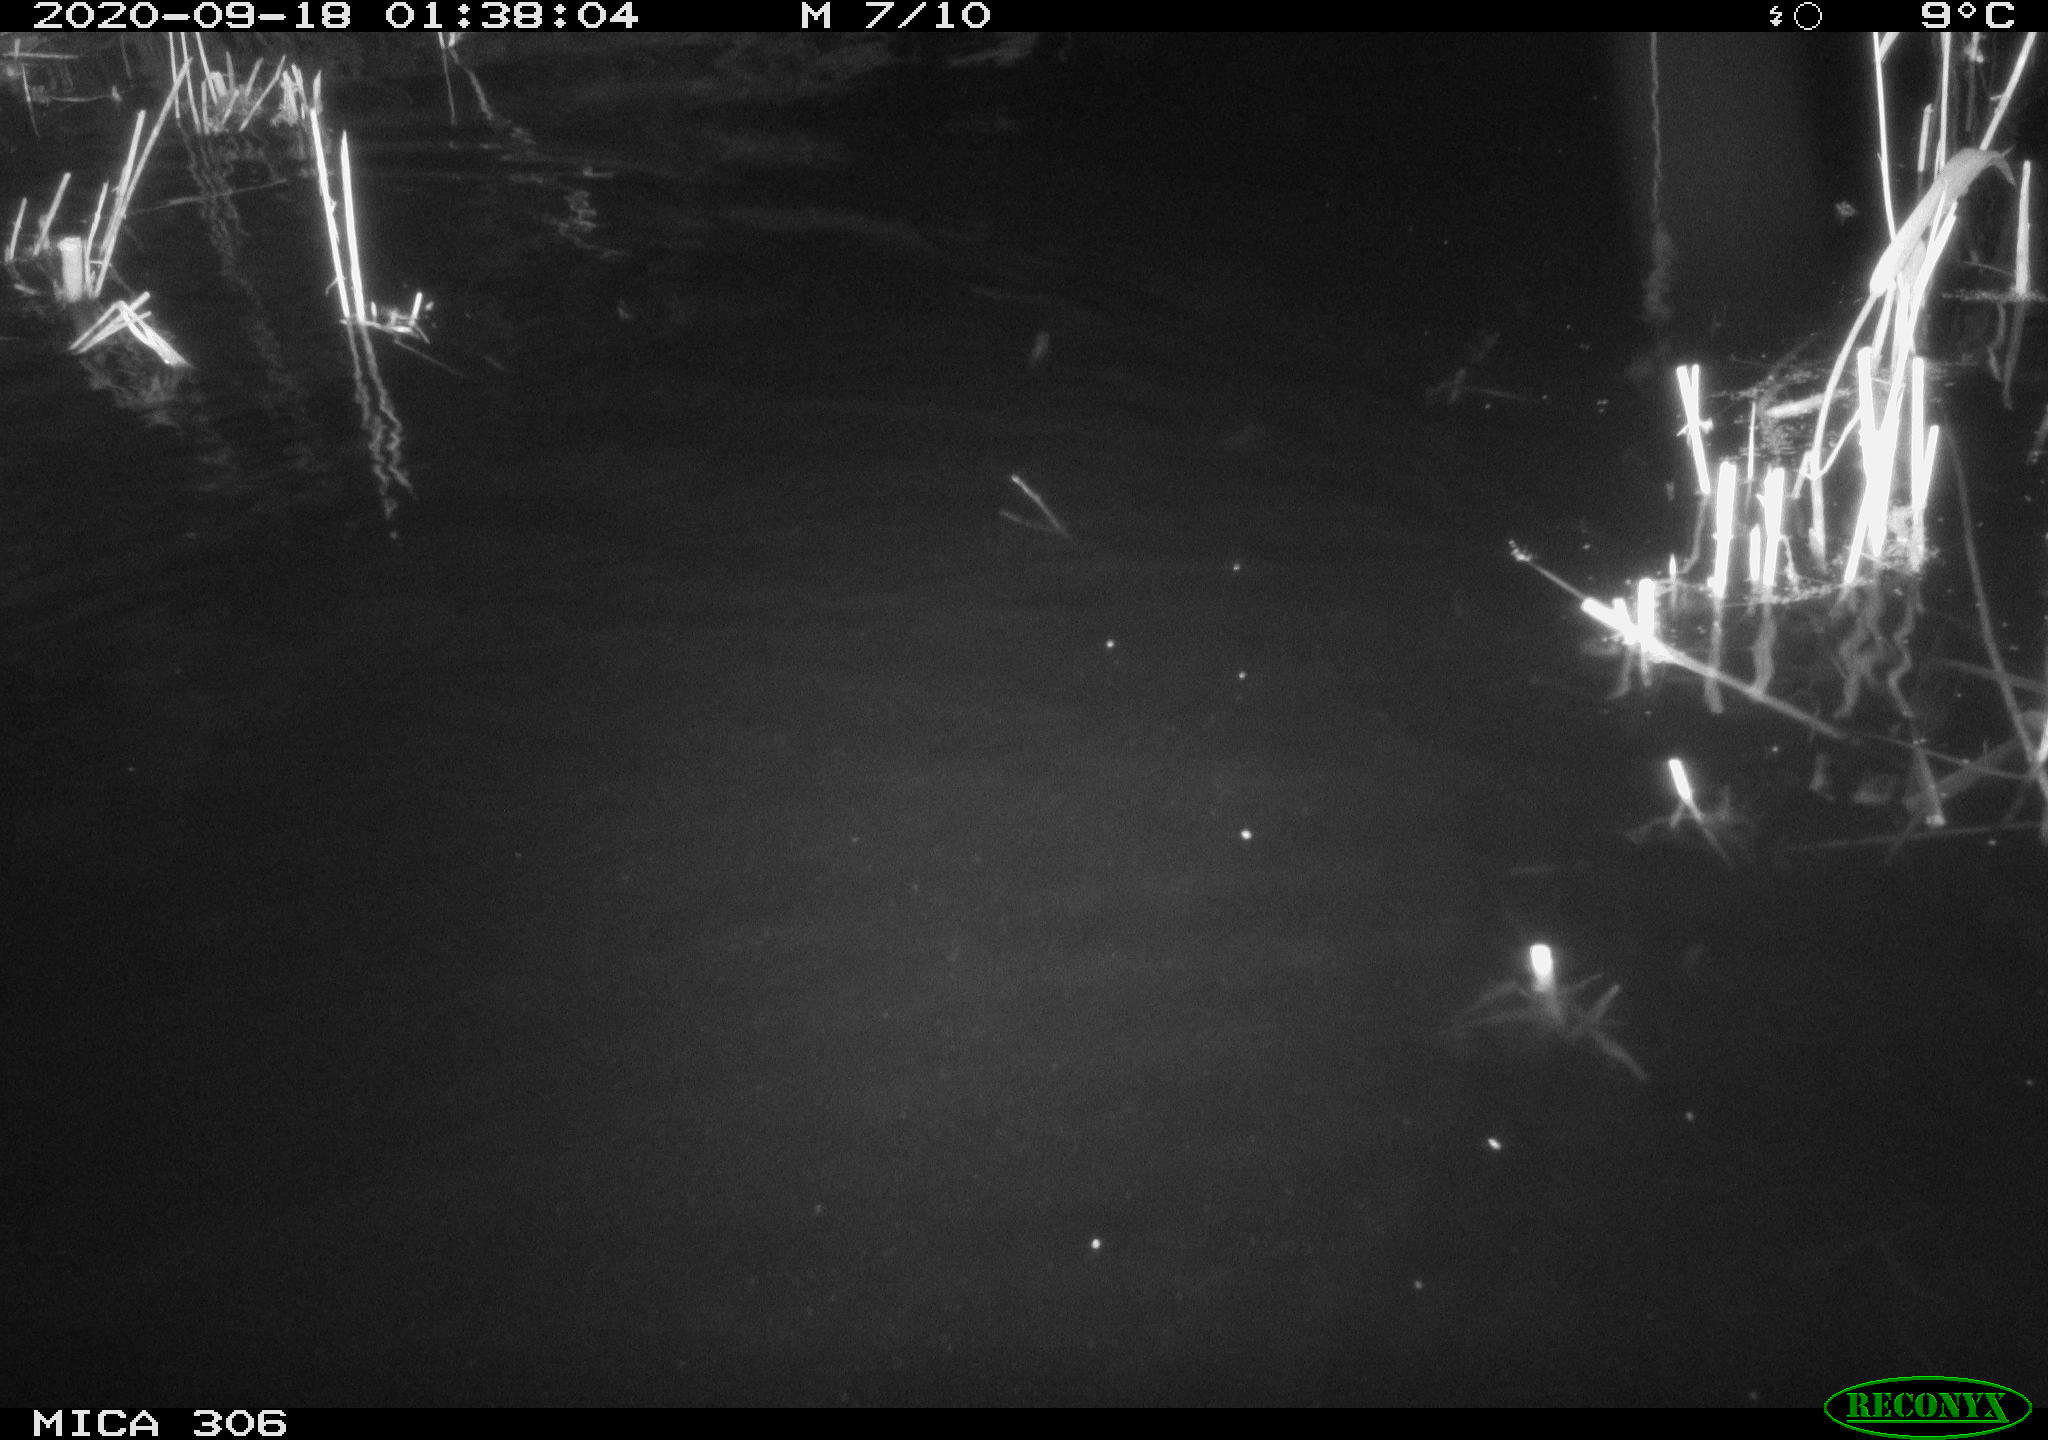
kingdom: Animalia
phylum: Chordata
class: Mammalia
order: Rodentia
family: Muridae
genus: Rattus
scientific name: Rattus norvegicus
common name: Brown rat
